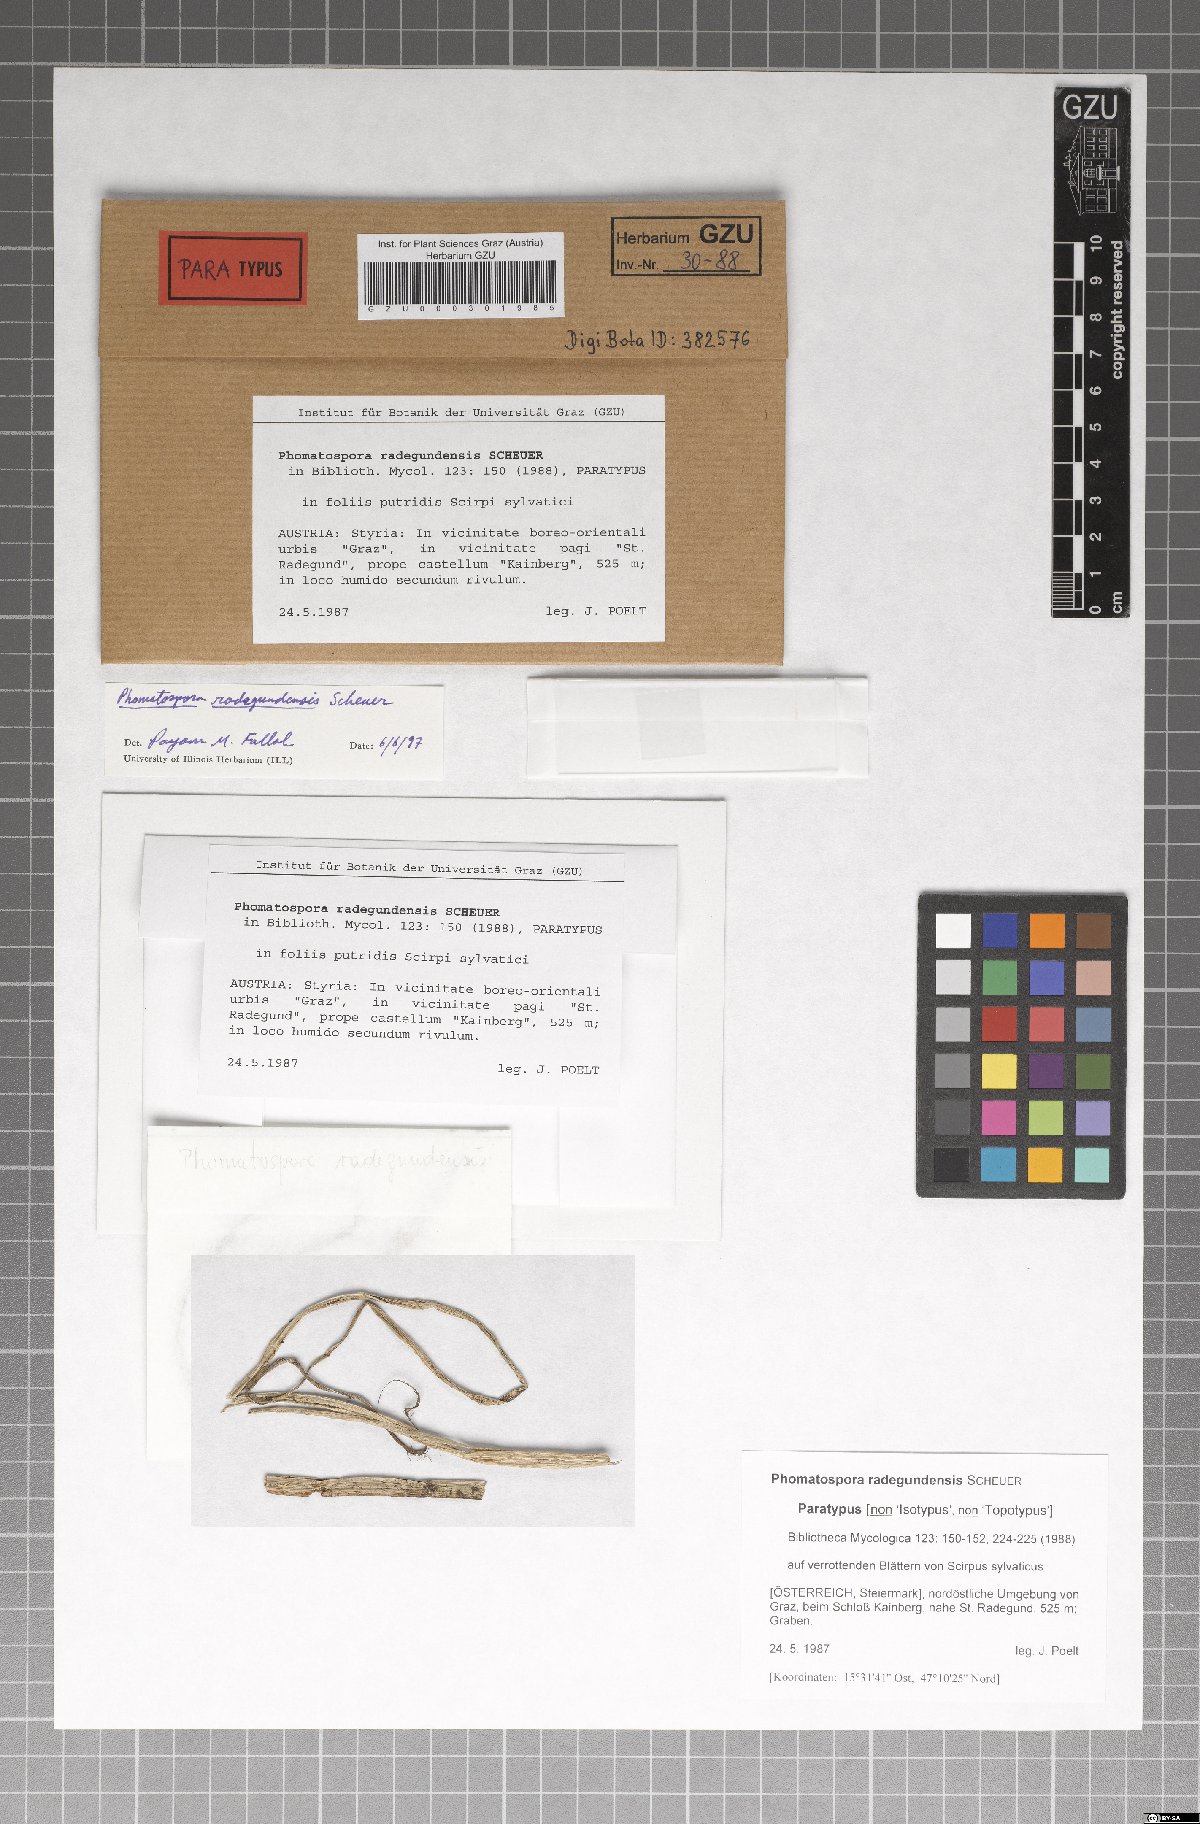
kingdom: Fungi
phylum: Ascomycota
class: Sordariomycetes
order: Phomatosporales
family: Phomatosporaceae
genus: Phomatospora
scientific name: Phomatospora radegundensis
